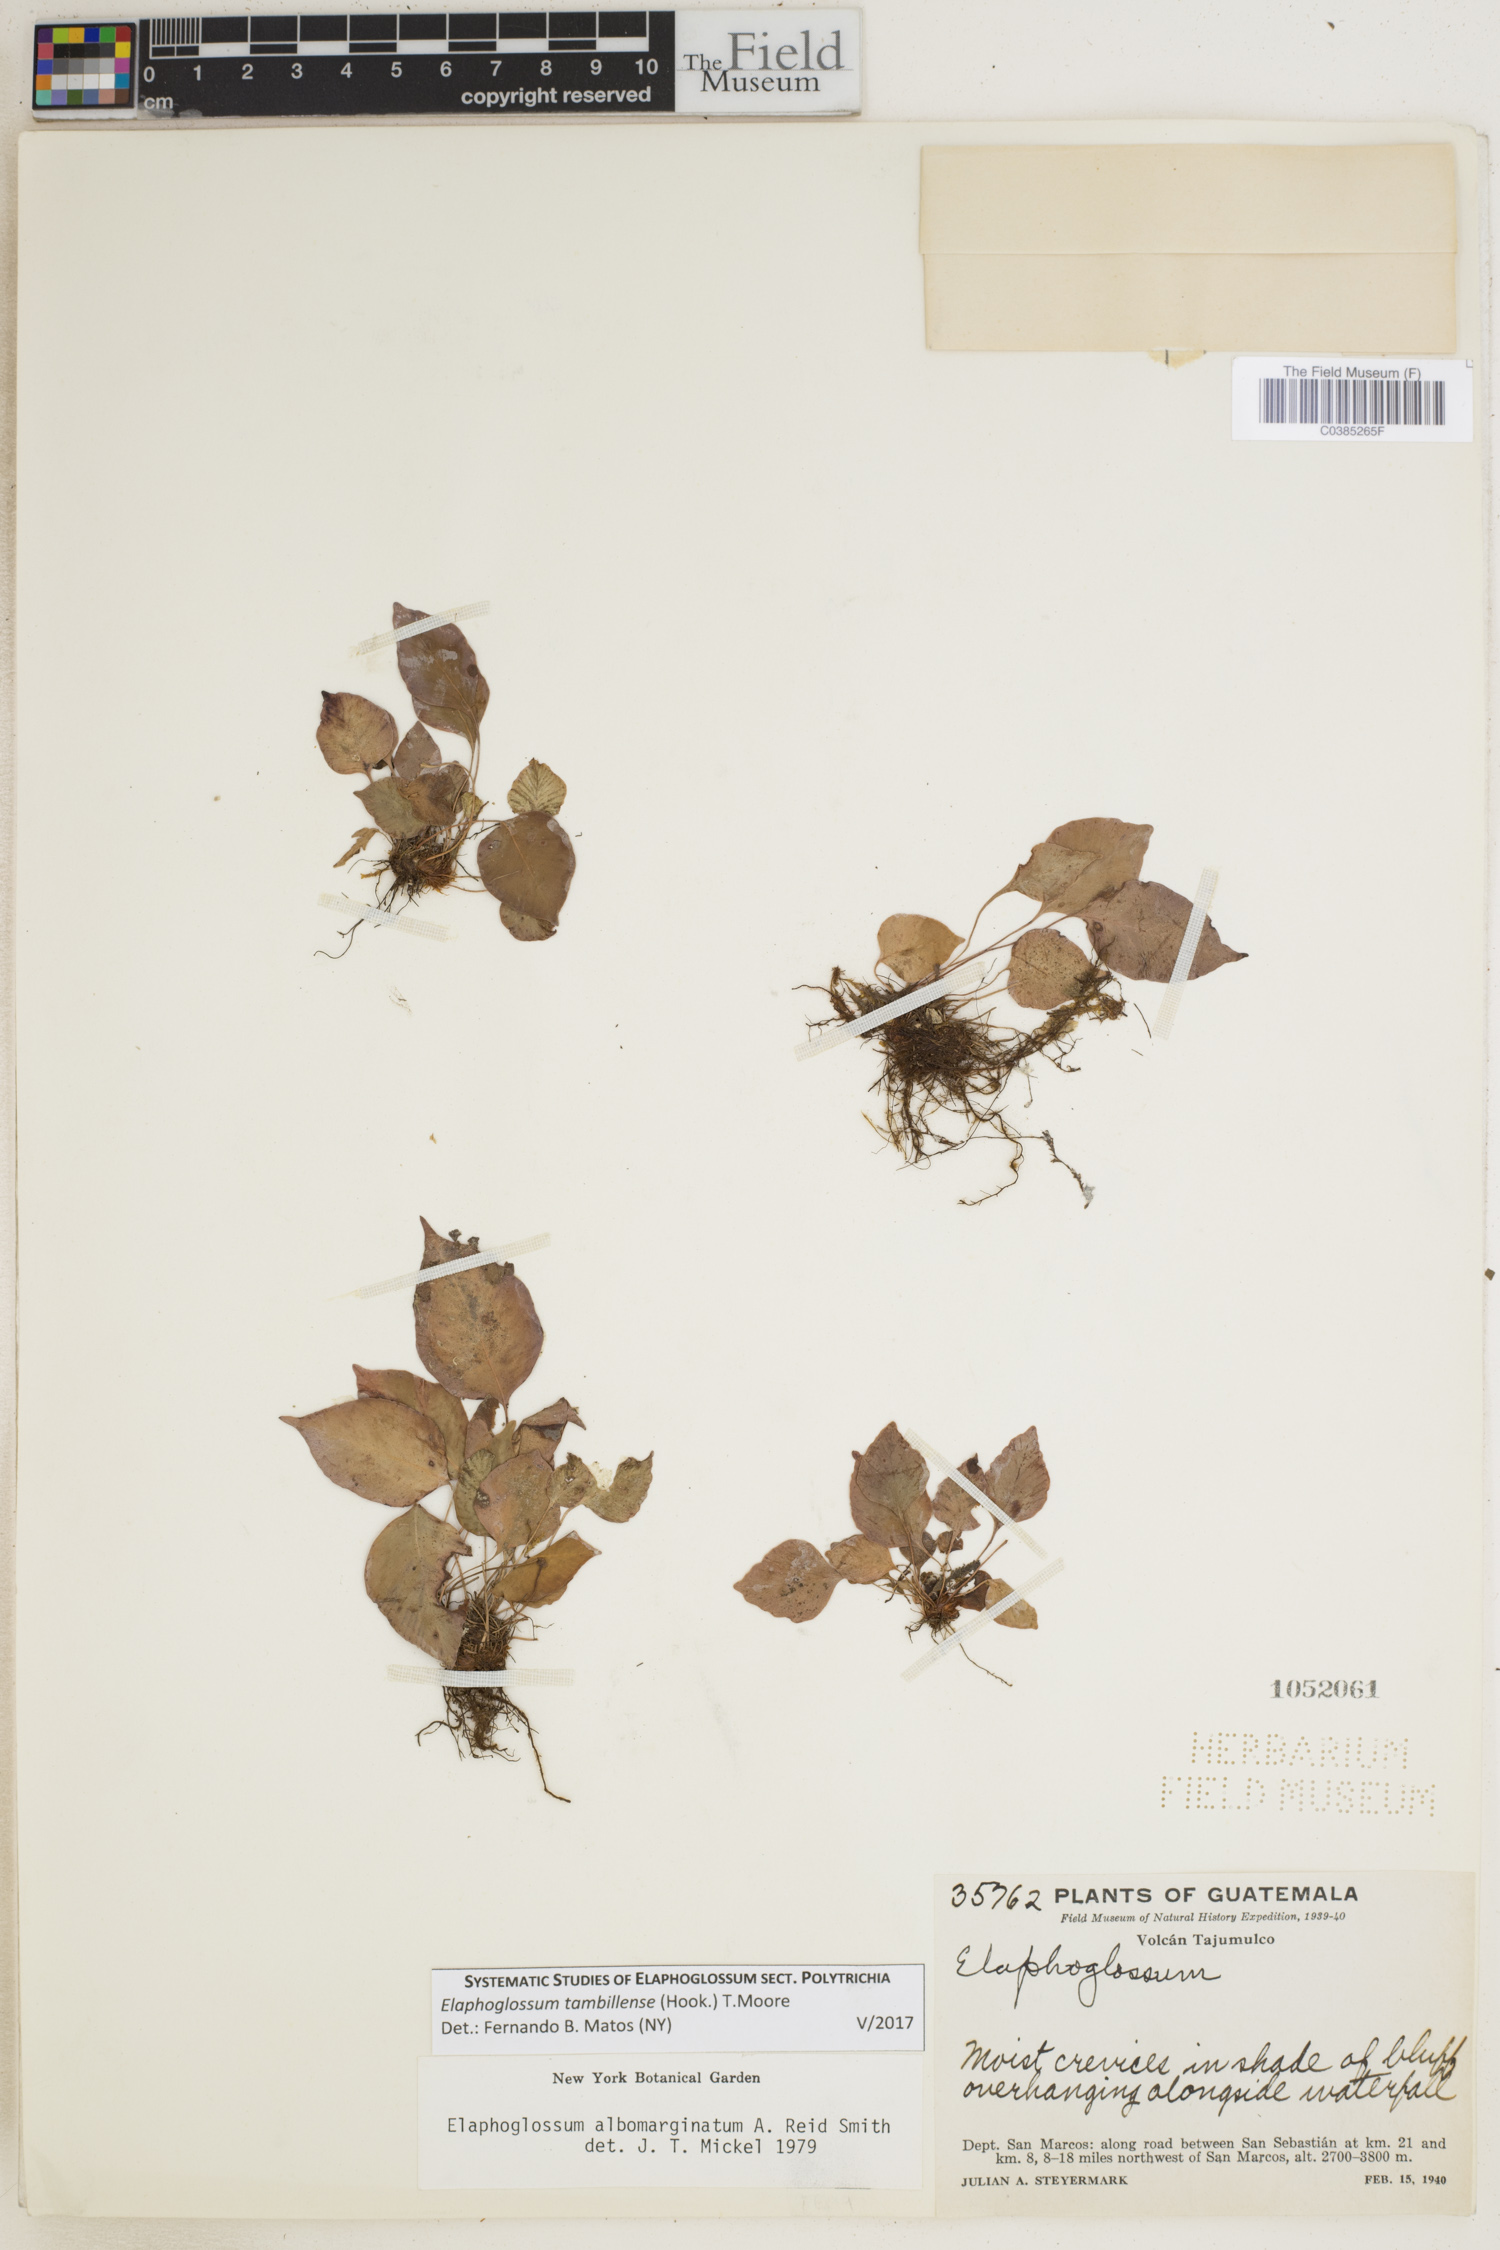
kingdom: Plantae
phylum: Tracheophyta
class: Polypodiopsida
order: Polypodiales
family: Dryopteridaceae
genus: Elaphoglossum
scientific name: Elaphoglossum tambillense
